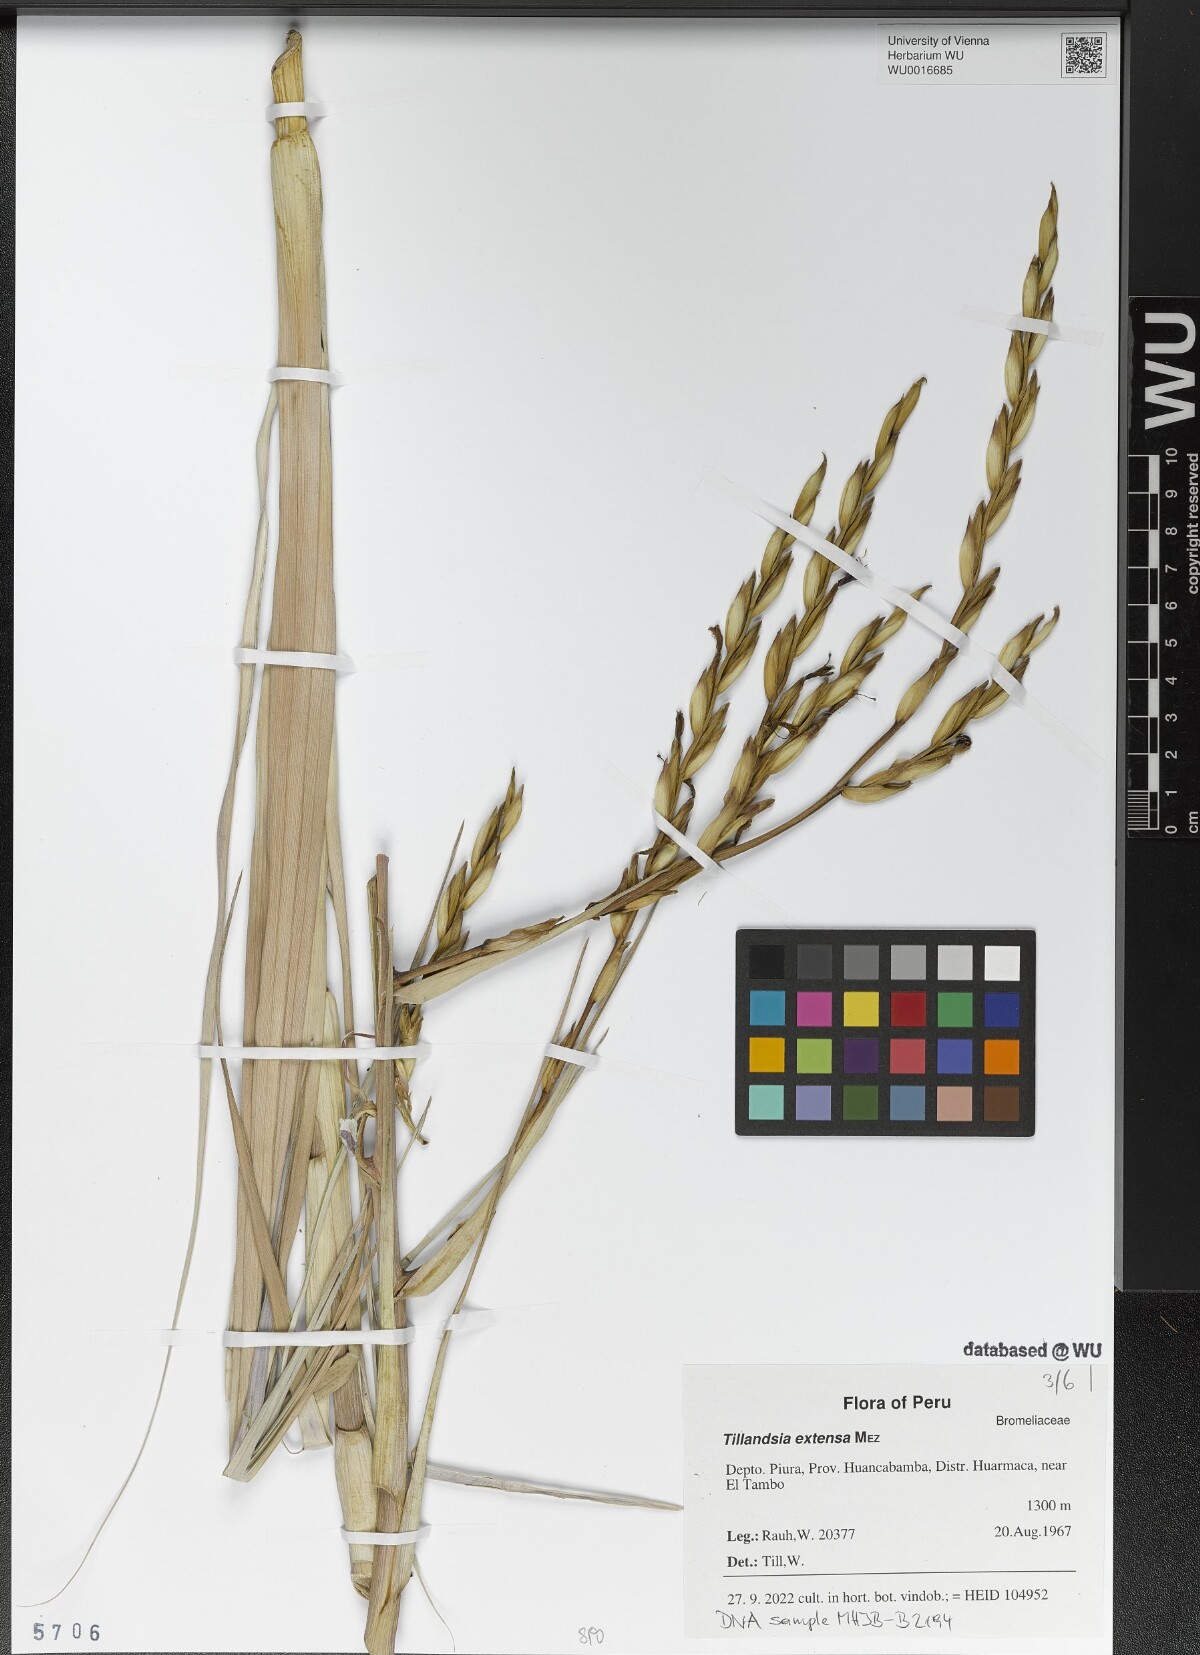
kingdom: Plantae
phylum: Tracheophyta
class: Liliopsida
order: Poales
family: Bromeliaceae
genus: Tillandsia
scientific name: Tillandsia extensa
